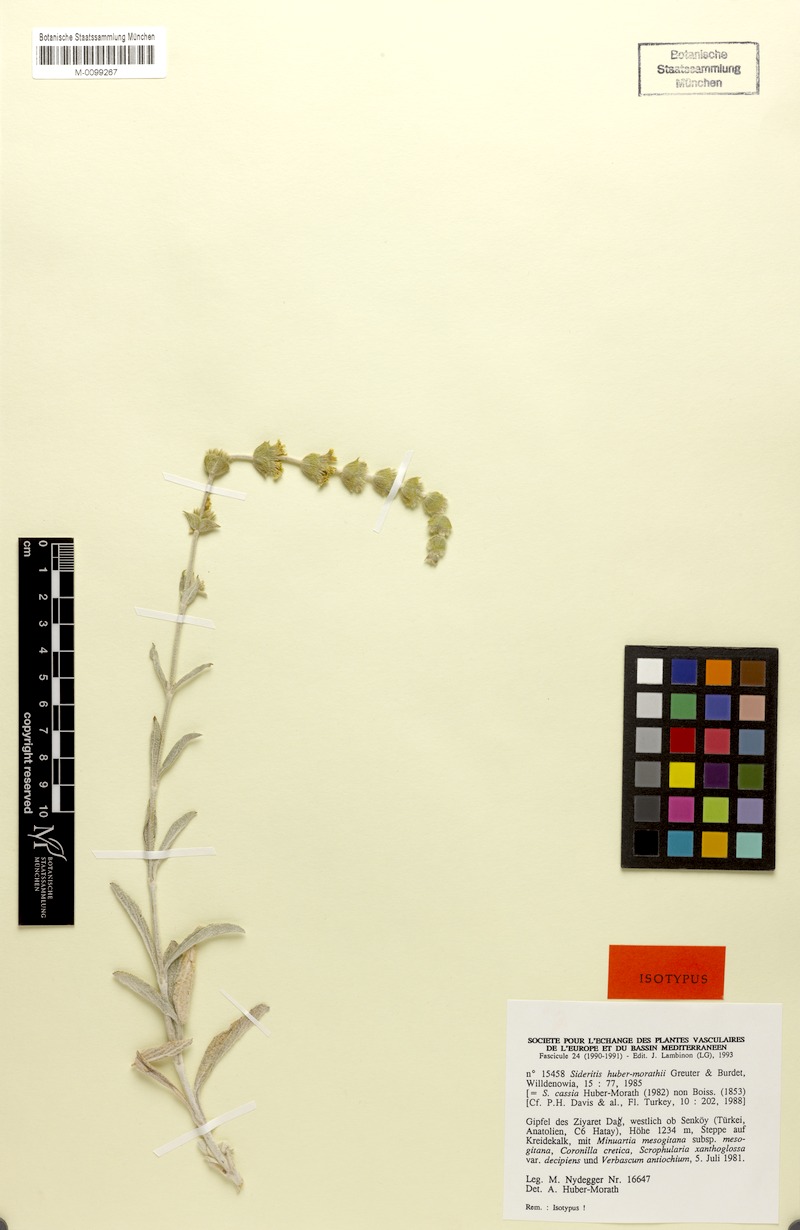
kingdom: Plantae
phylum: Tracheophyta
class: Magnoliopsida
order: Lamiales
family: Lamiaceae
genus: Sideritis
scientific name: Sideritis huber-morathii
